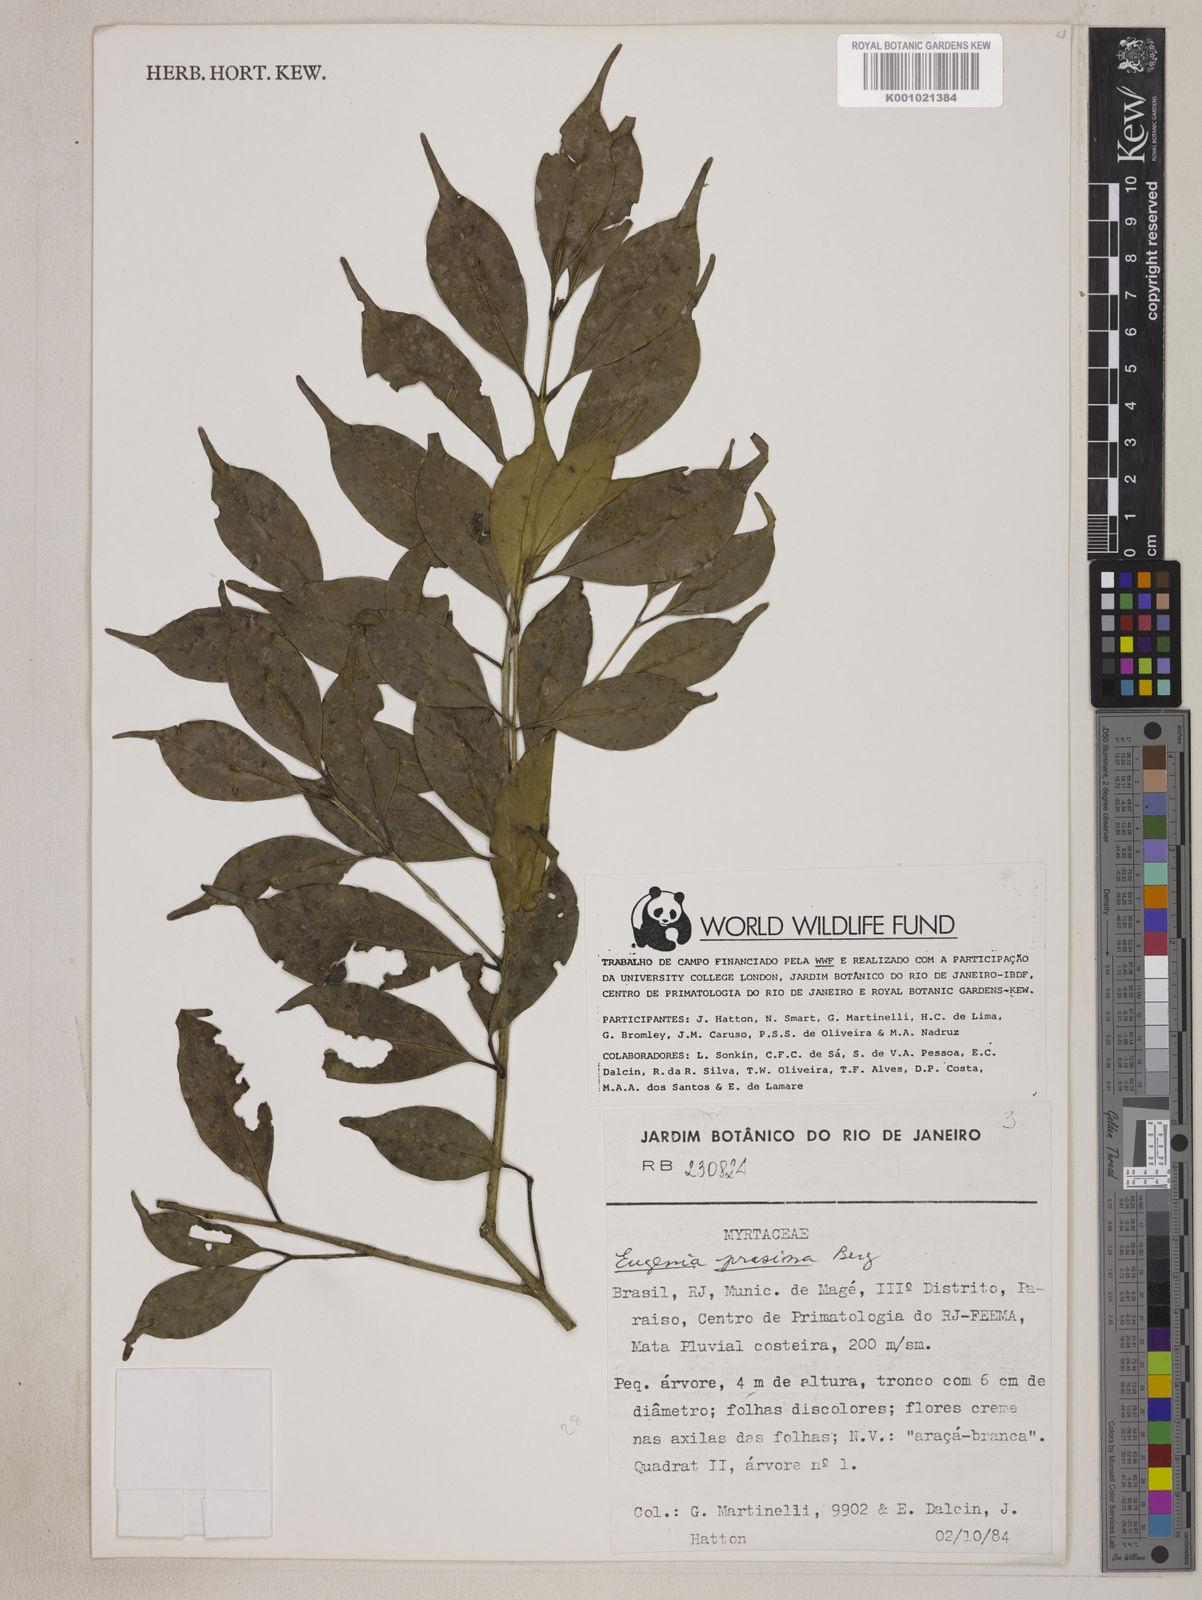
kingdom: Plantae
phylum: Tracheophyta
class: Magnoliopsida
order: Myrtales
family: Myrtaceae
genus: Eugenia
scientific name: Eugenia prasina
